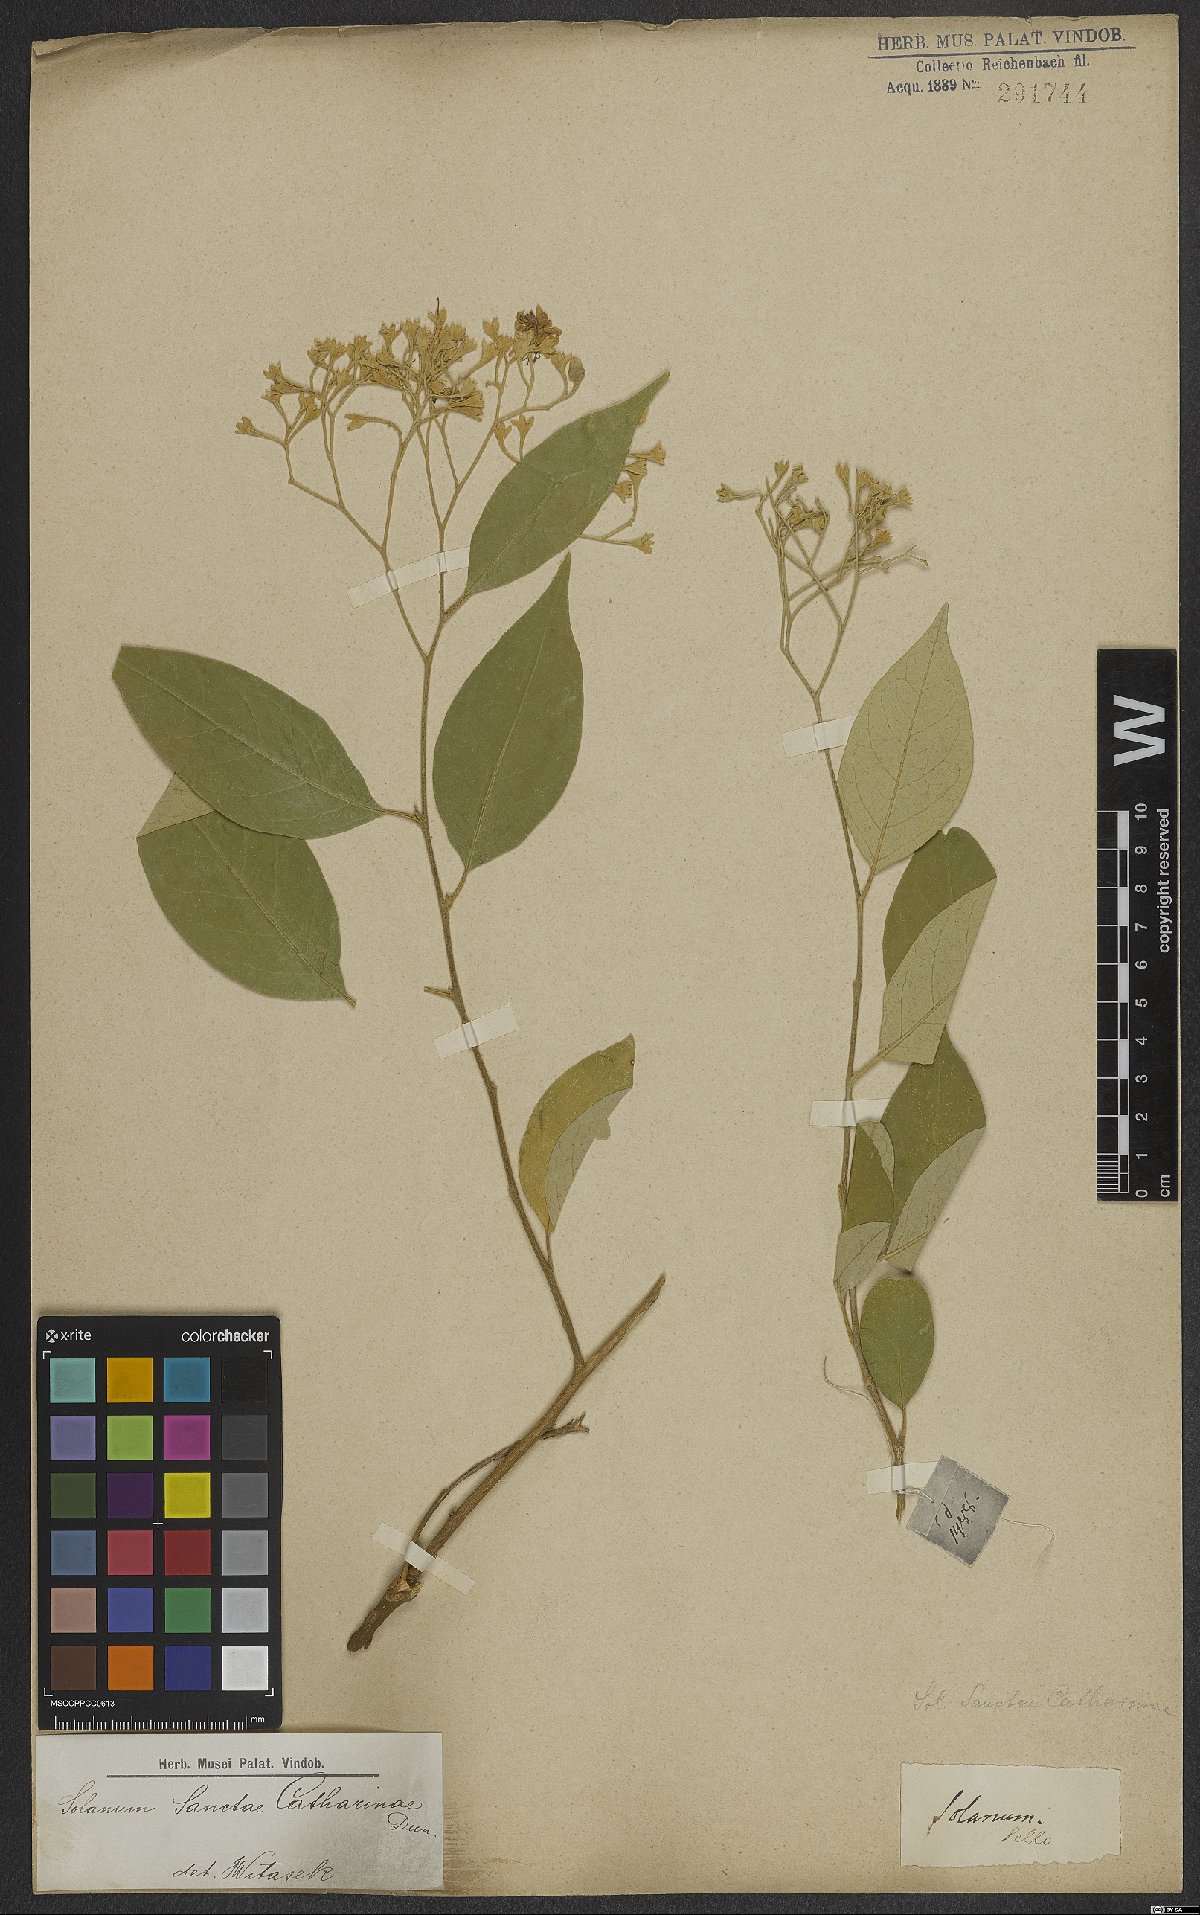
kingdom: Plantae
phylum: Tracheophyta
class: Magnoliopsida
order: Solanales
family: Solanaceae
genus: Solanum
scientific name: Solanum sanctae-catharinae
